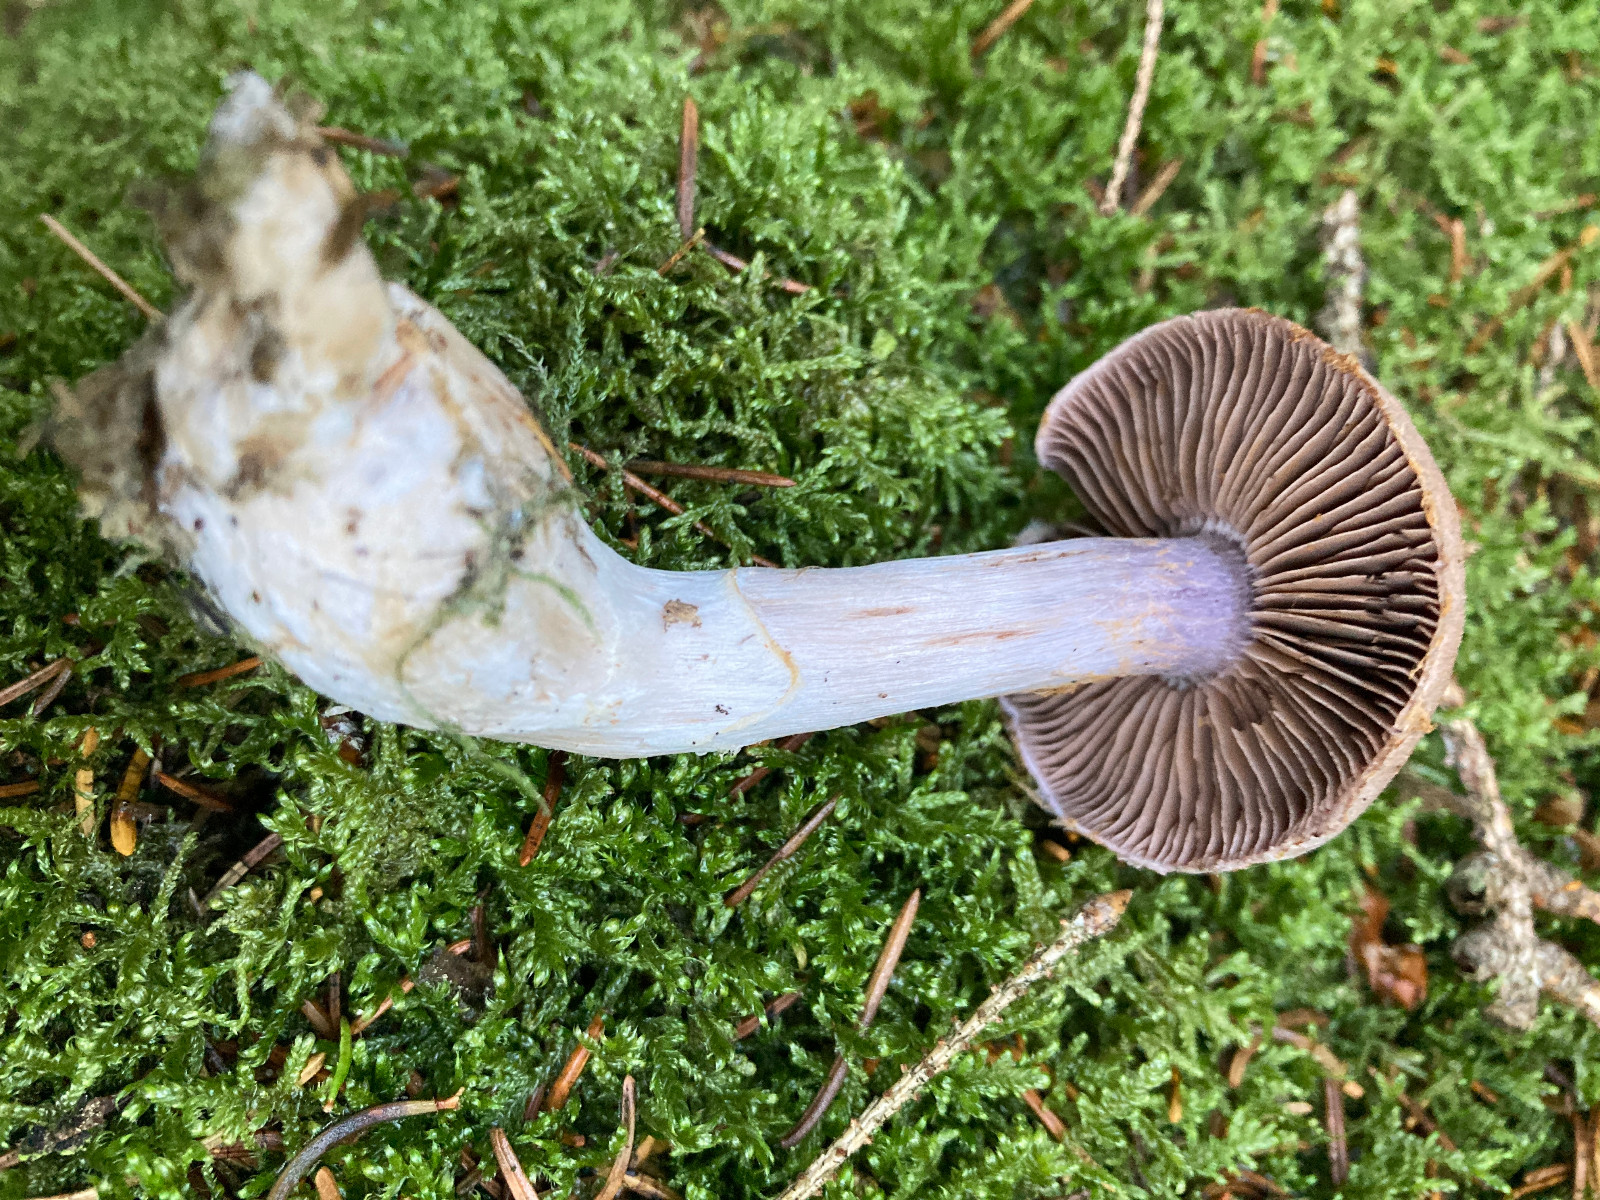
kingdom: Fungi
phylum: Basidiomycota
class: Agaricomycetes
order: Agaricales
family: Cortinariaceae
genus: Cortinarius
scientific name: Cortinarius
